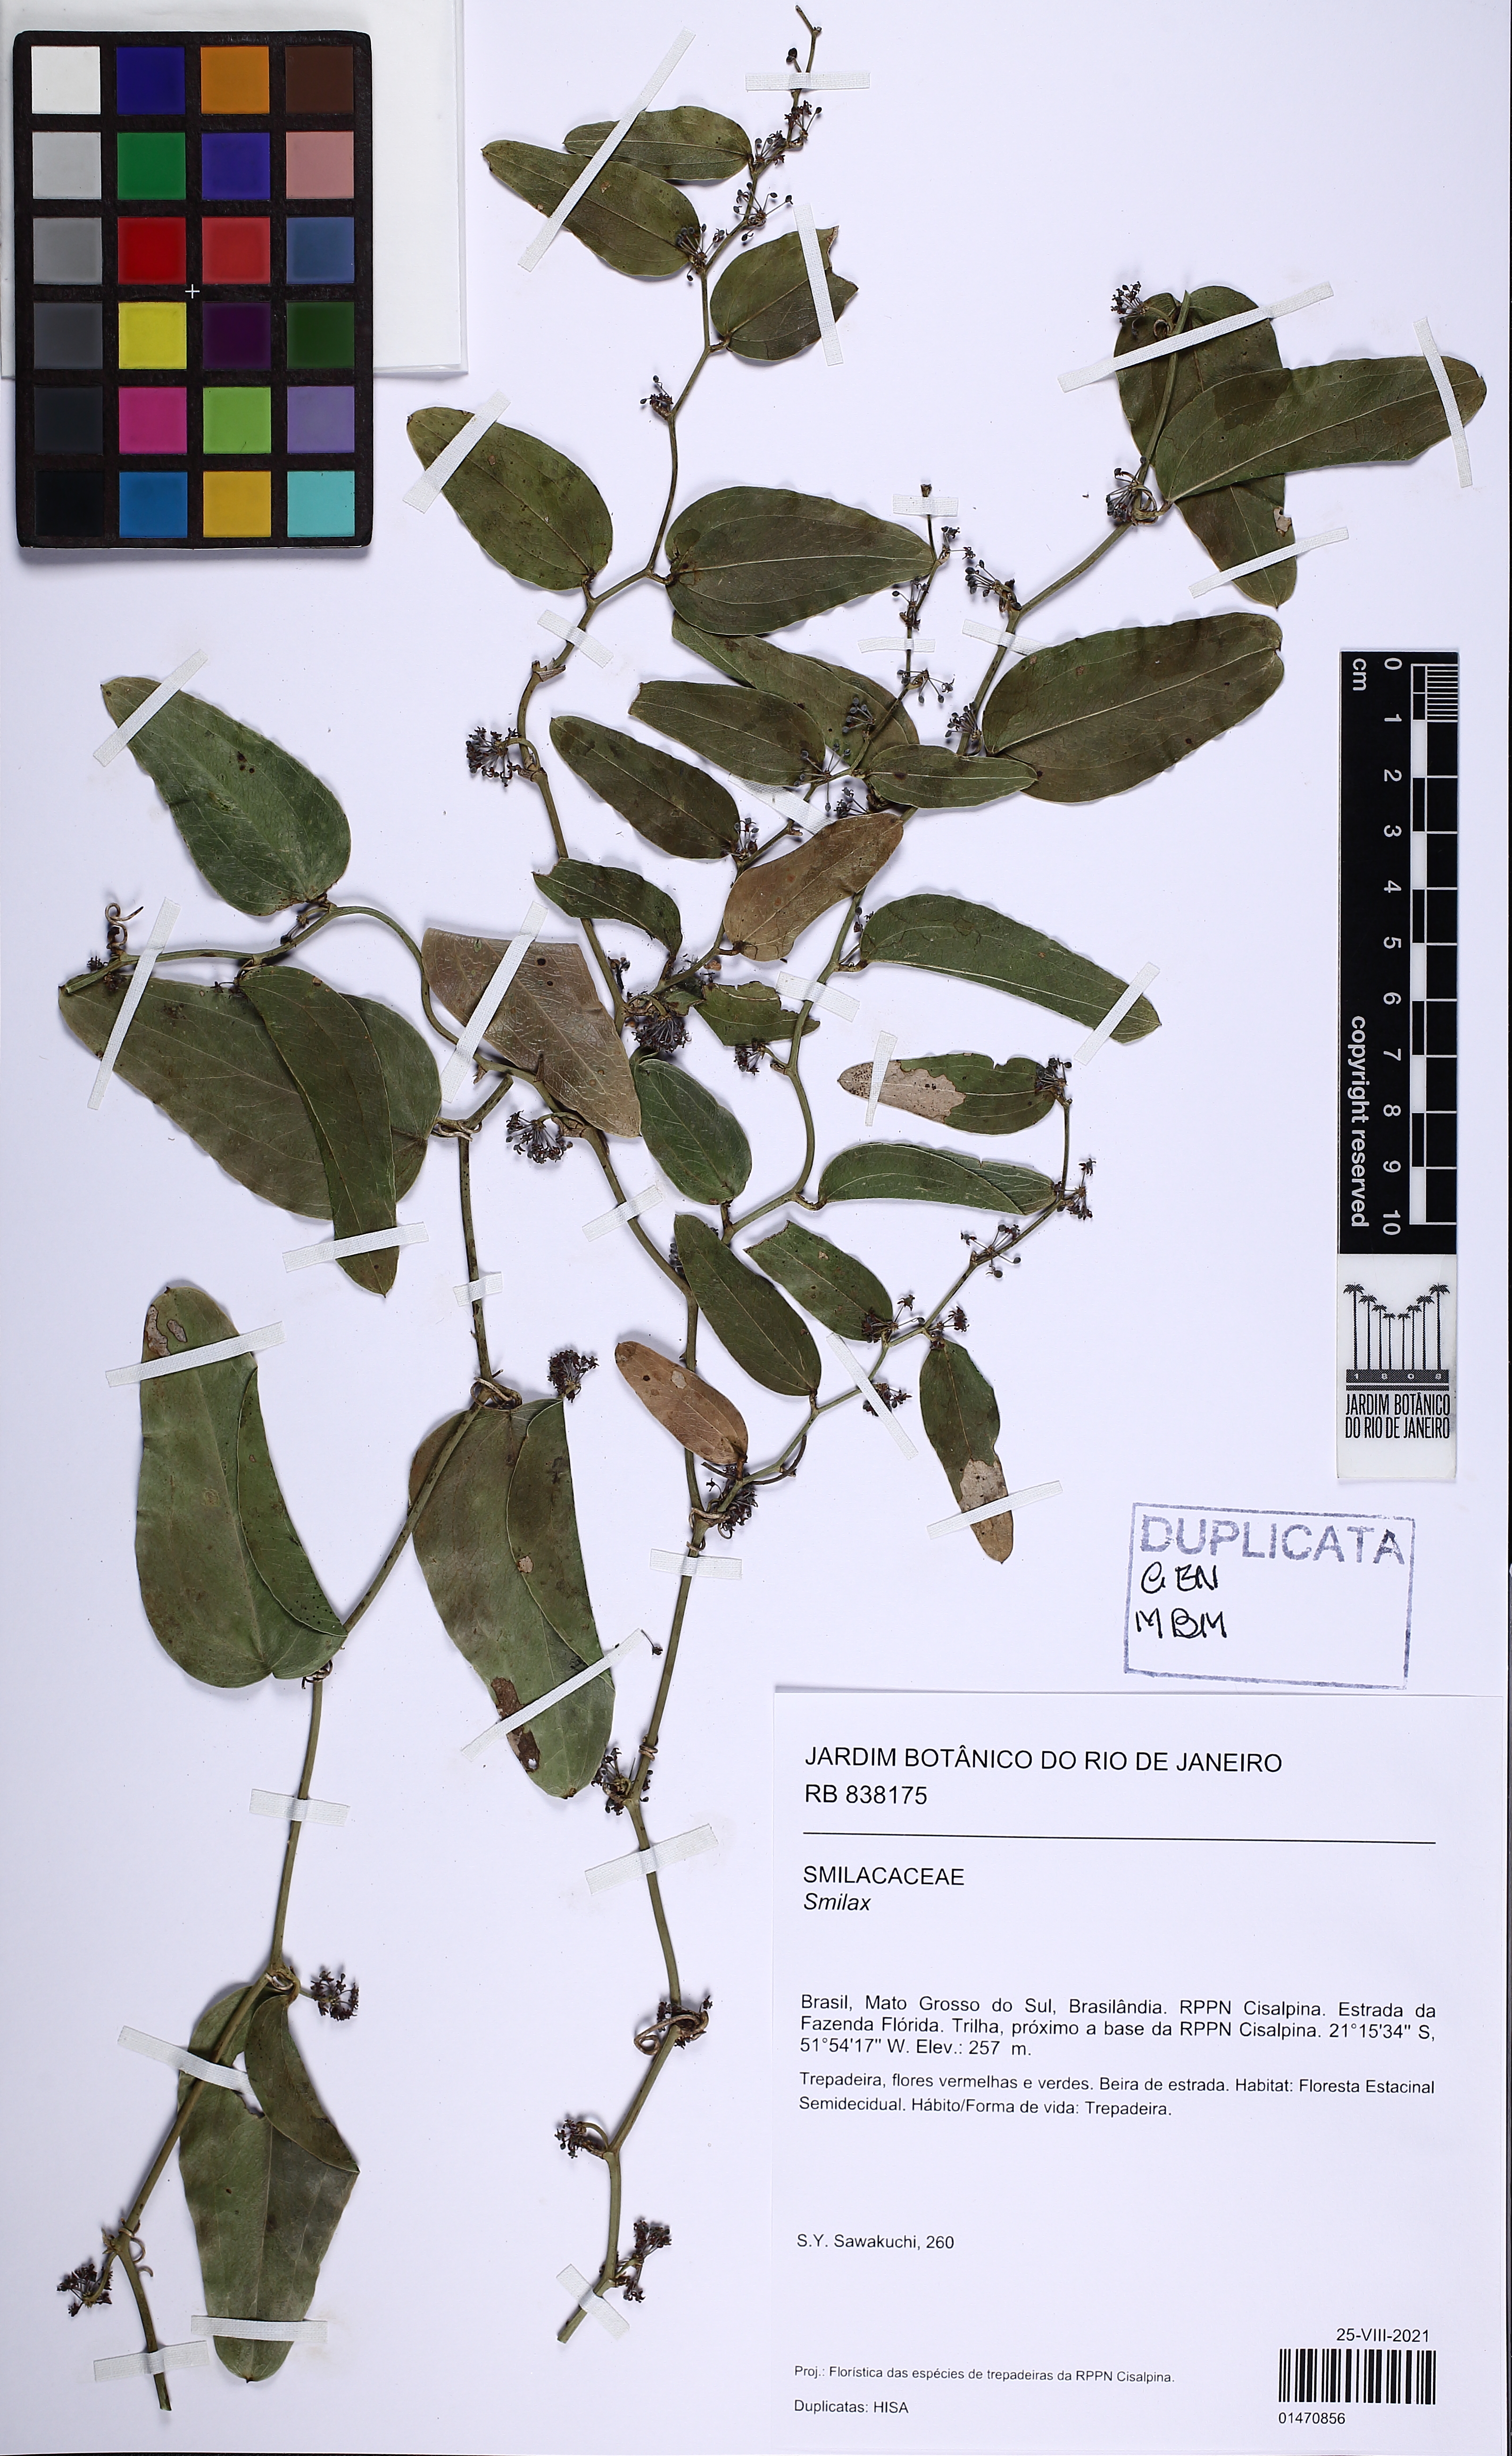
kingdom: Plantae
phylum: Tracheophyta
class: Liliopsida
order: Liliales
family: Smilacaceae
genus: Smilax
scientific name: Smilax
